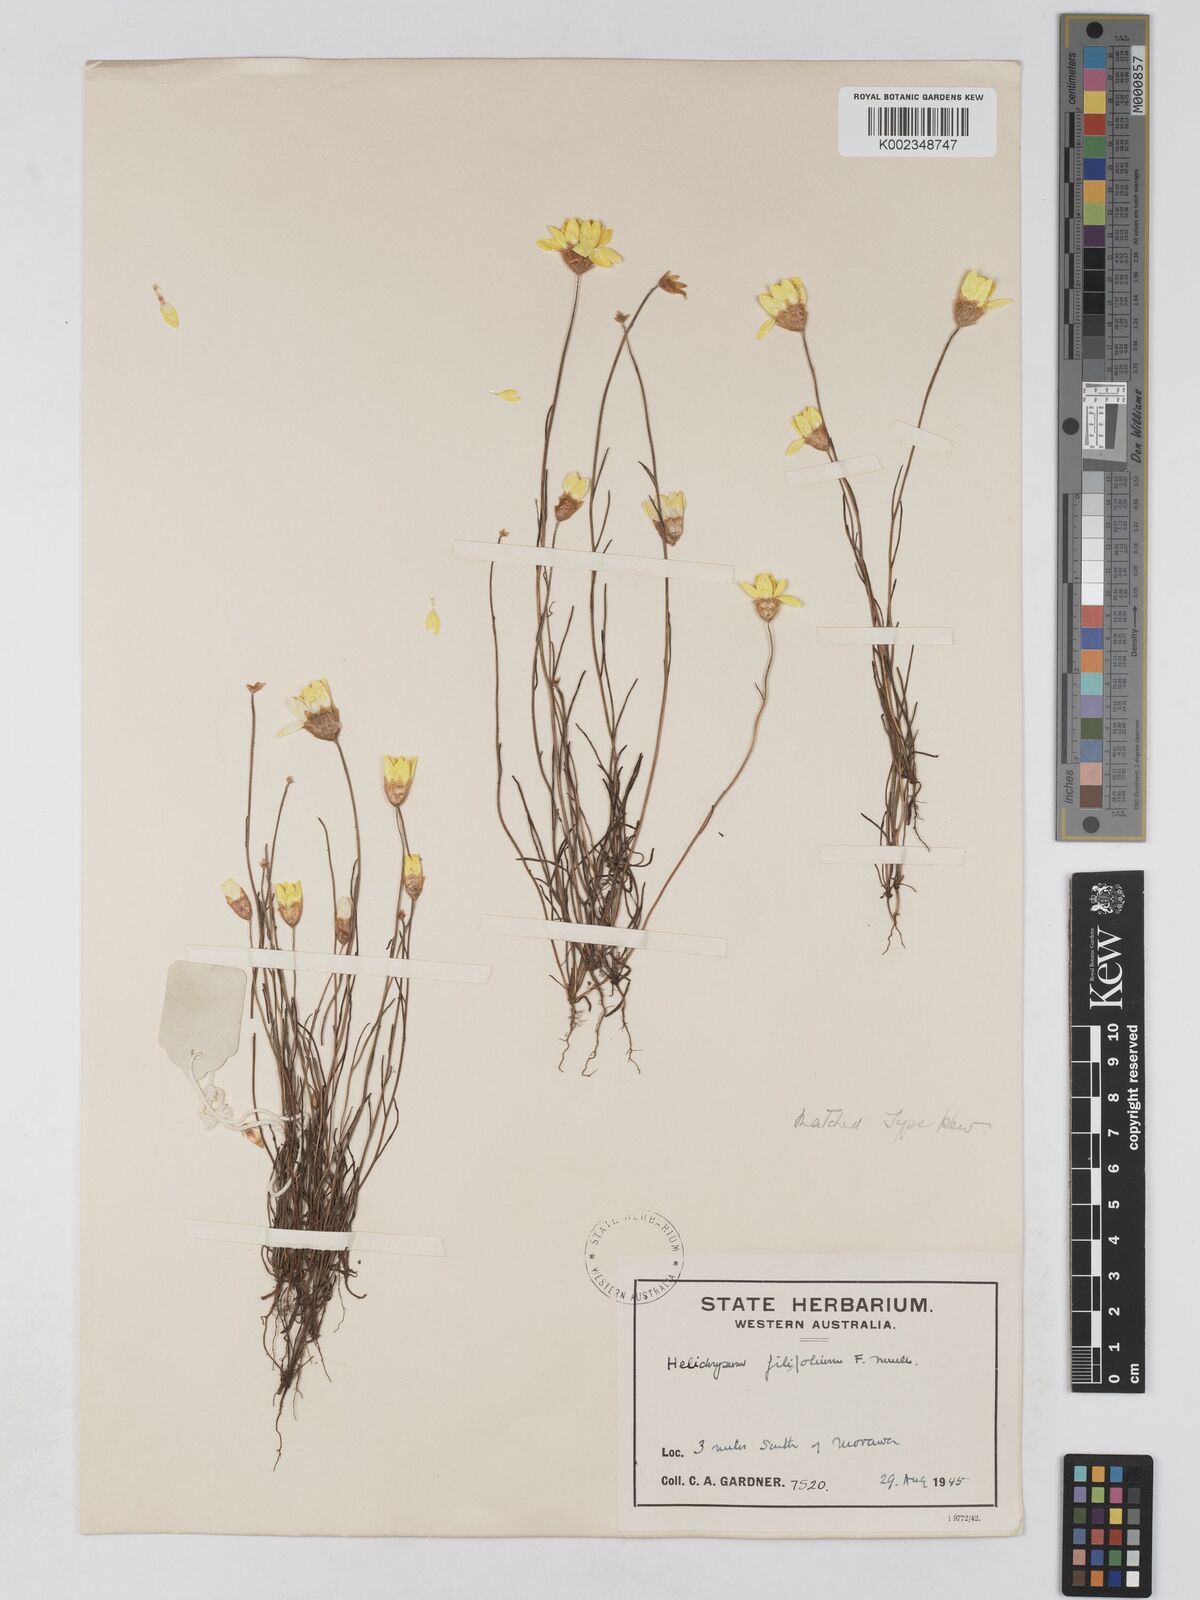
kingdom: Plantae
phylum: Tracheophyta
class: Magnoliopsida
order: Asterales
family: Asteraceae
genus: Schoenia
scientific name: Schoenia filifolia
